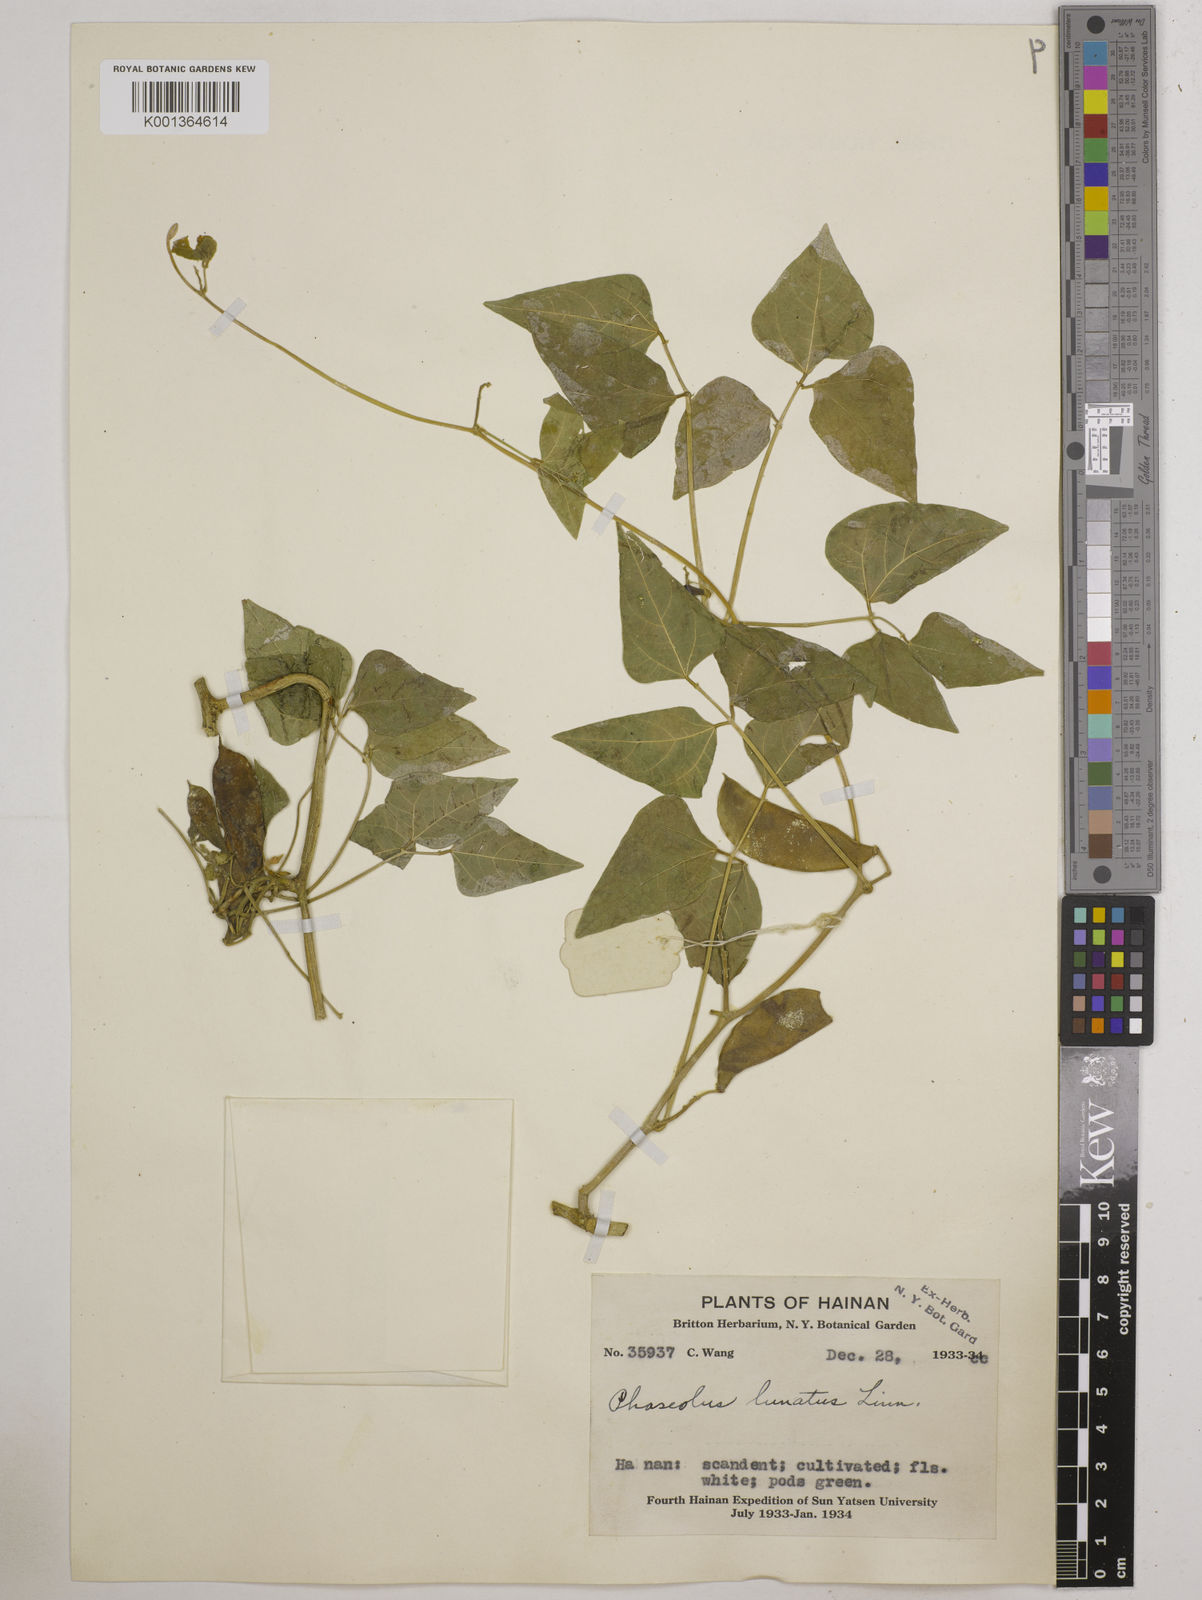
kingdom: Plantae
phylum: Tracheophyta
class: Magnoliopsida
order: Fabales
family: Fabaceae
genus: Phaseolus
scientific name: Phaseolus lunatus
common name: Sieva bean
